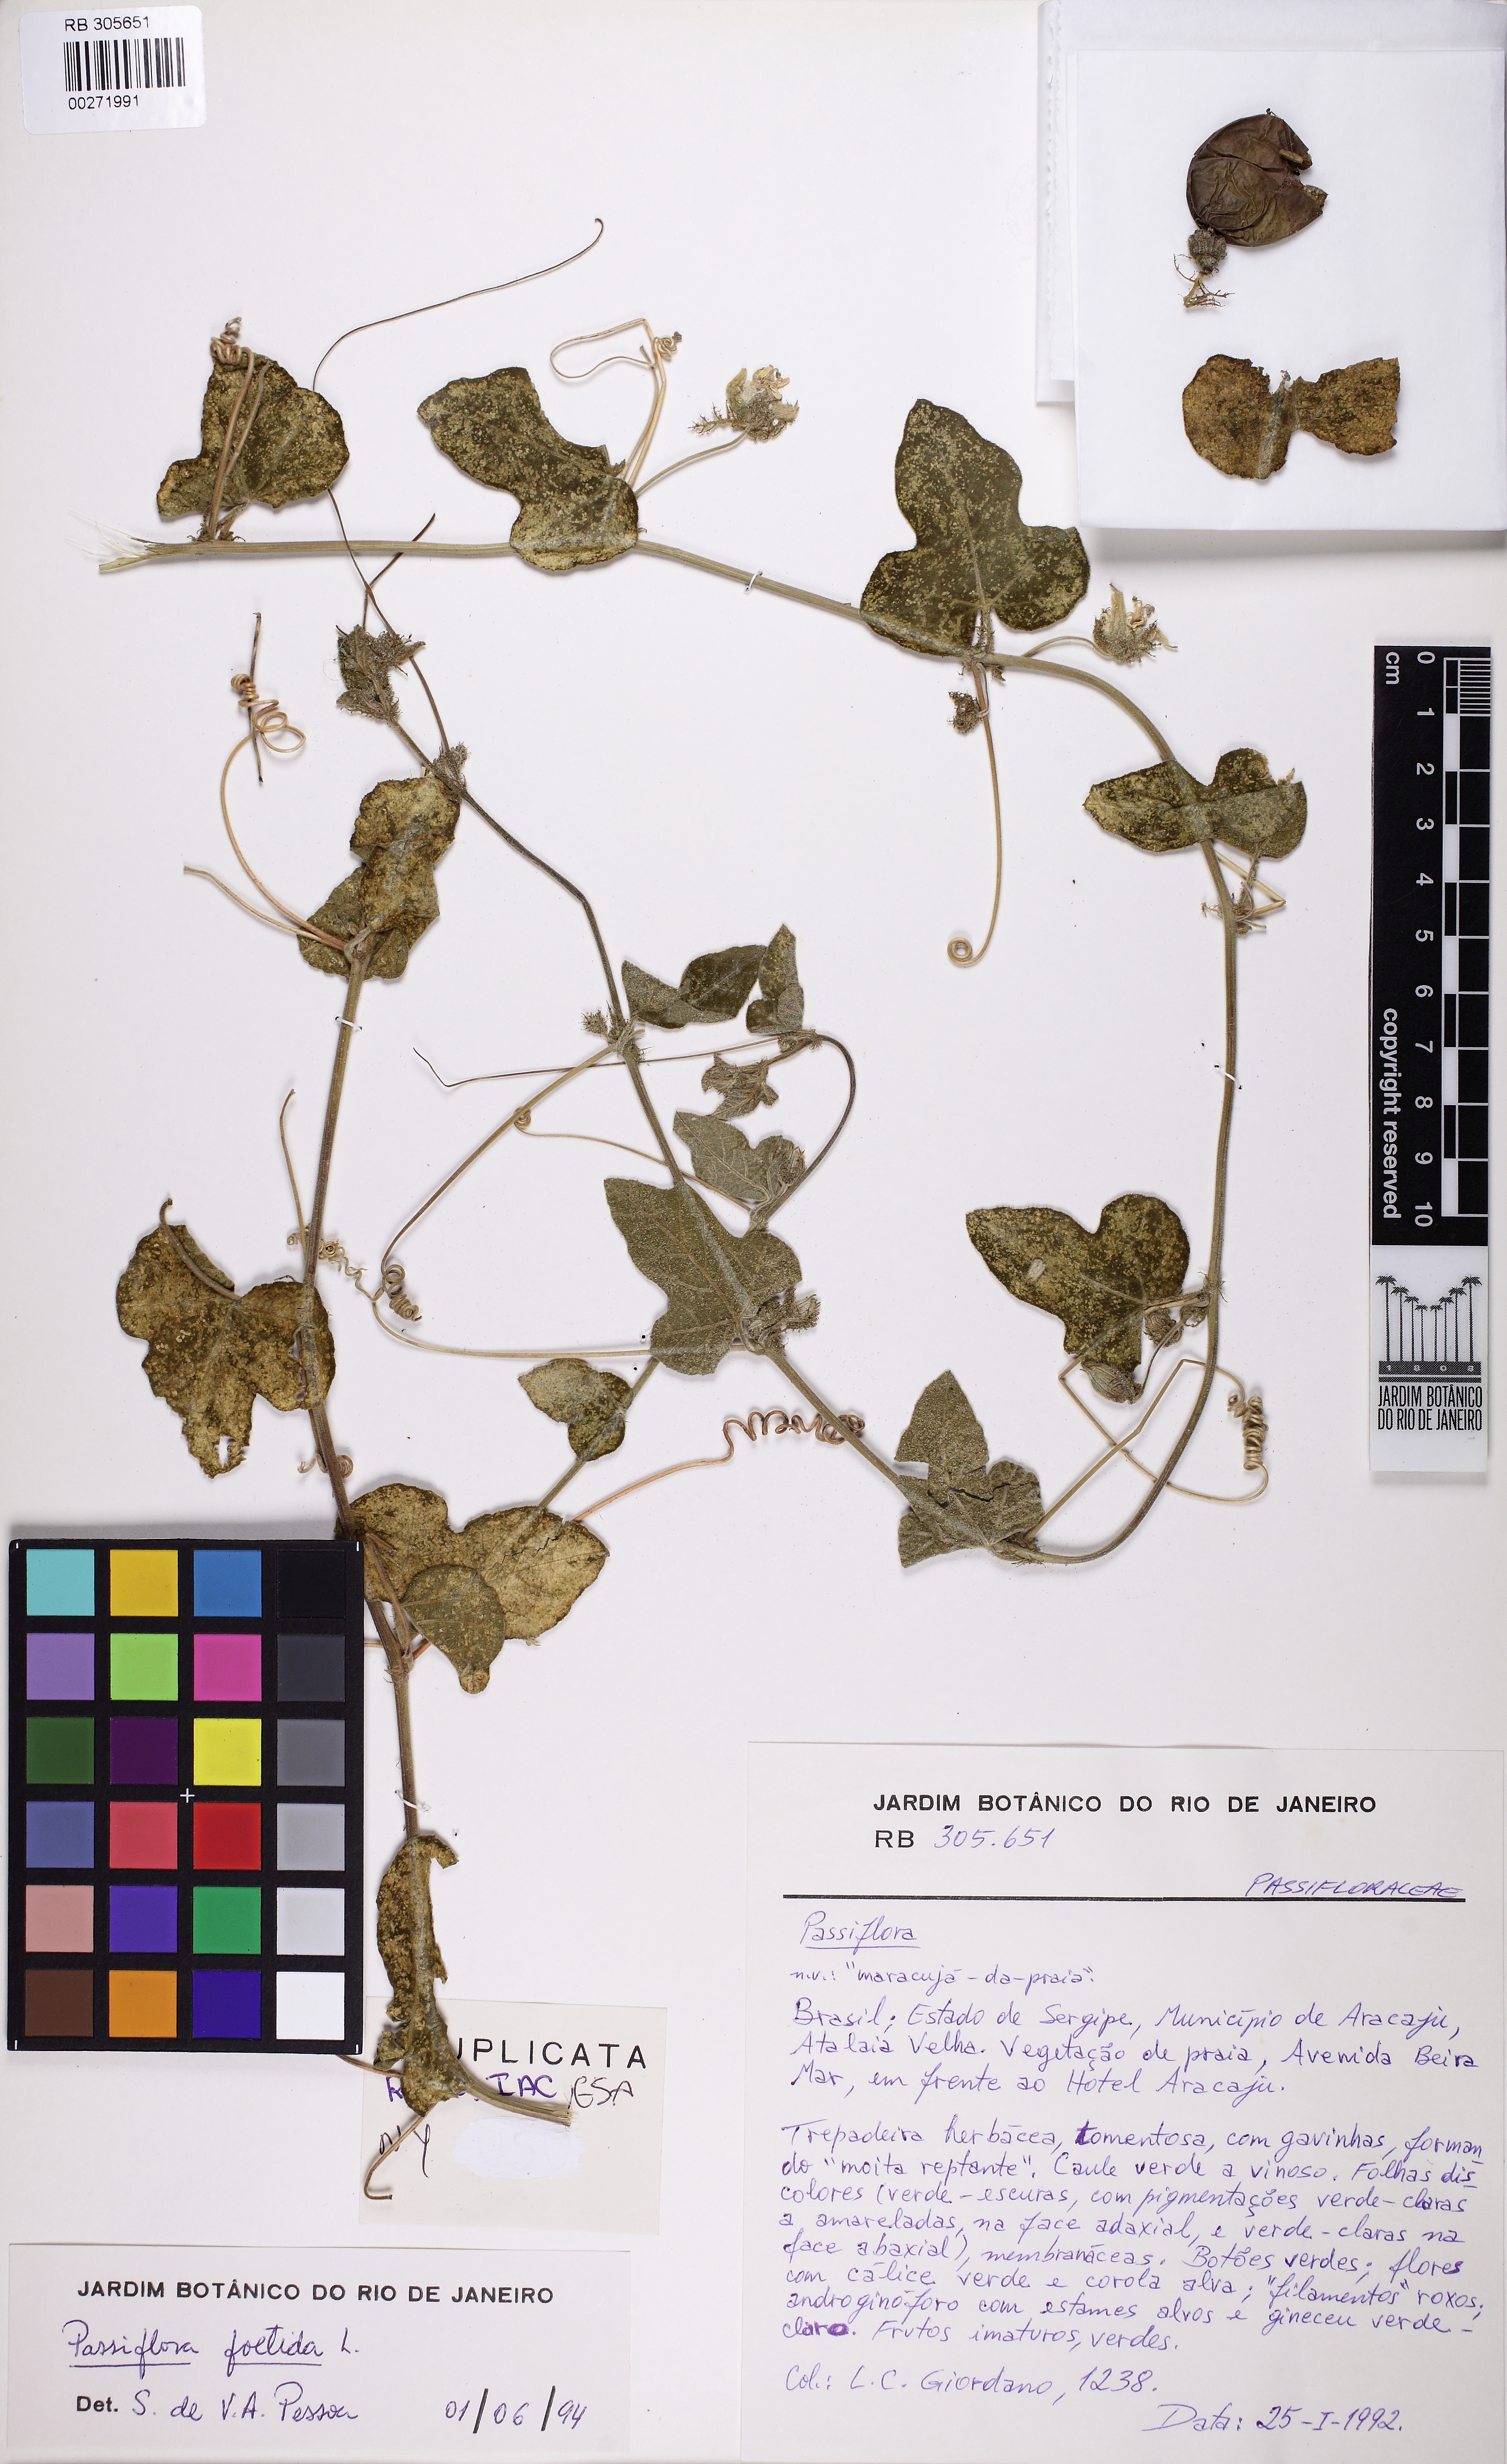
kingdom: Plantae
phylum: Tracheophyta
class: Magnoliopsida
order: Malpighiales
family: Passifloraceae
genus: Passiflora
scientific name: Passiflora foetida
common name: Fetid passionflower
